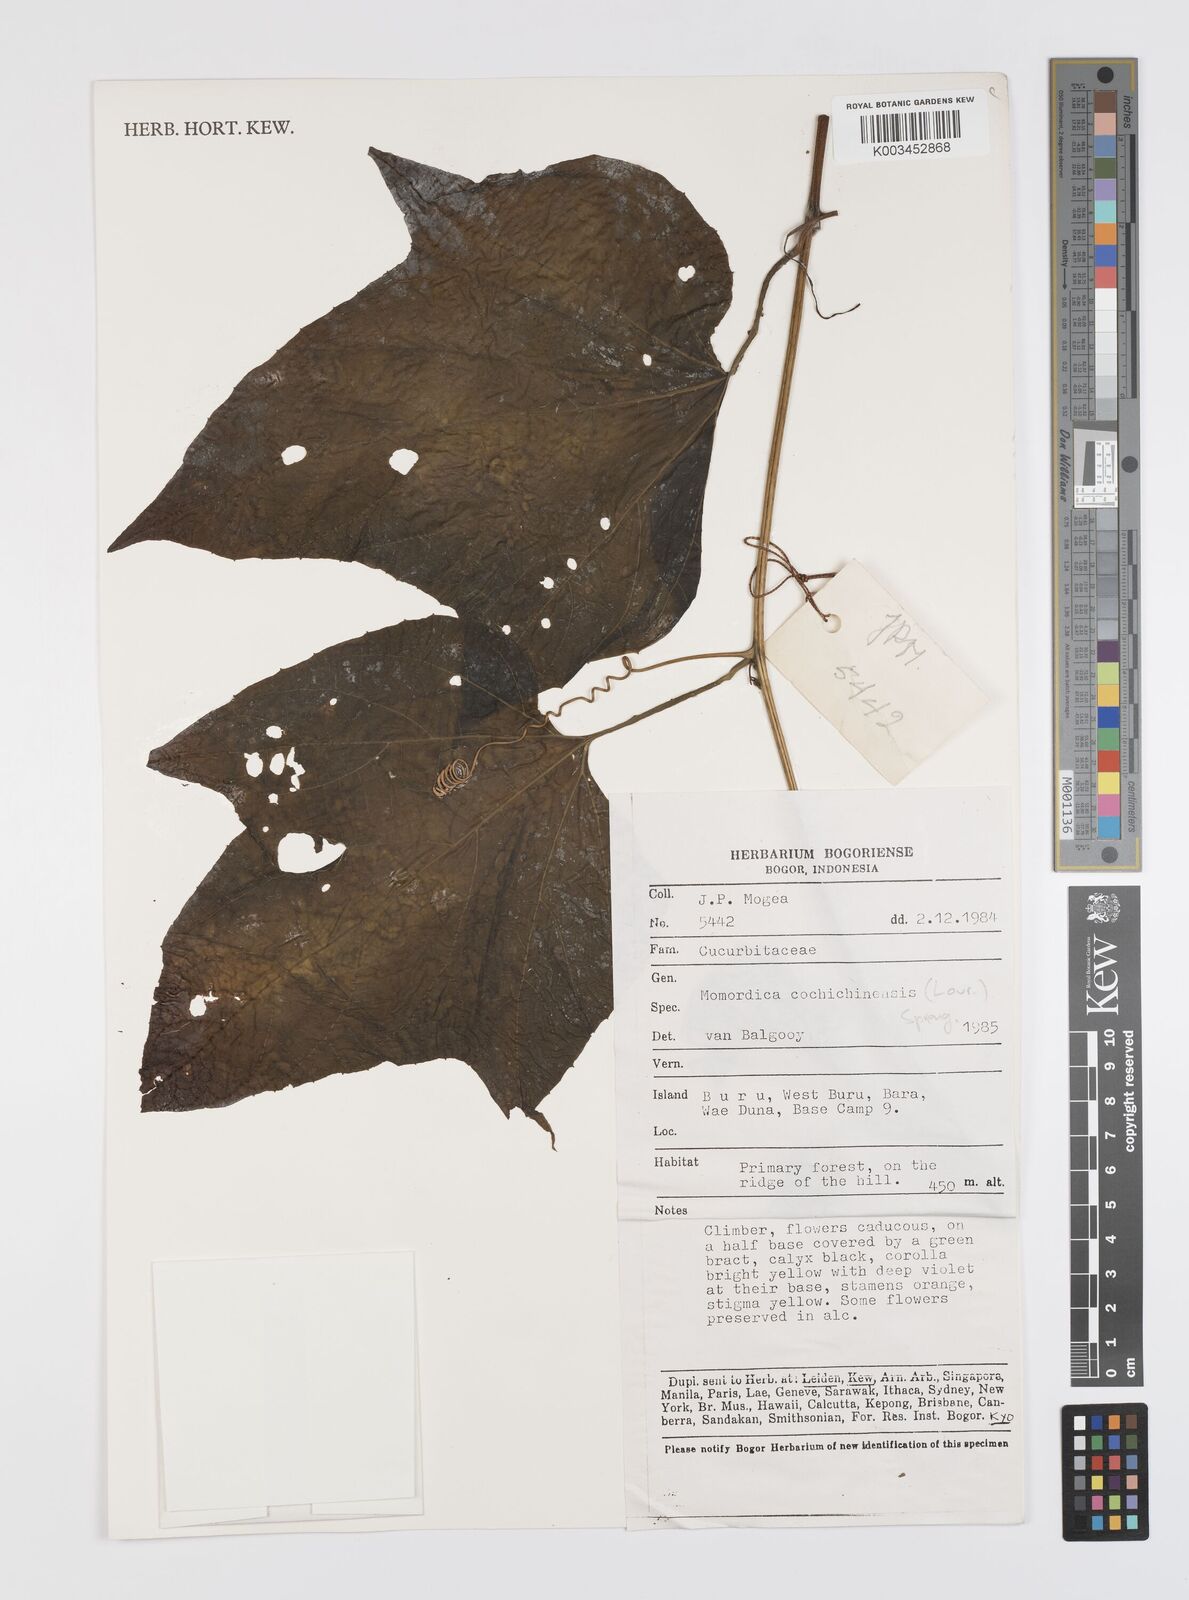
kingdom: Plantae
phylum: Tracheophyta
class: Magnoliopsida
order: Cucurbitales
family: Cucurbitaceae
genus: Momordica
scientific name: Momordica cochinchinensis
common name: Chinese bitter-cucumber
